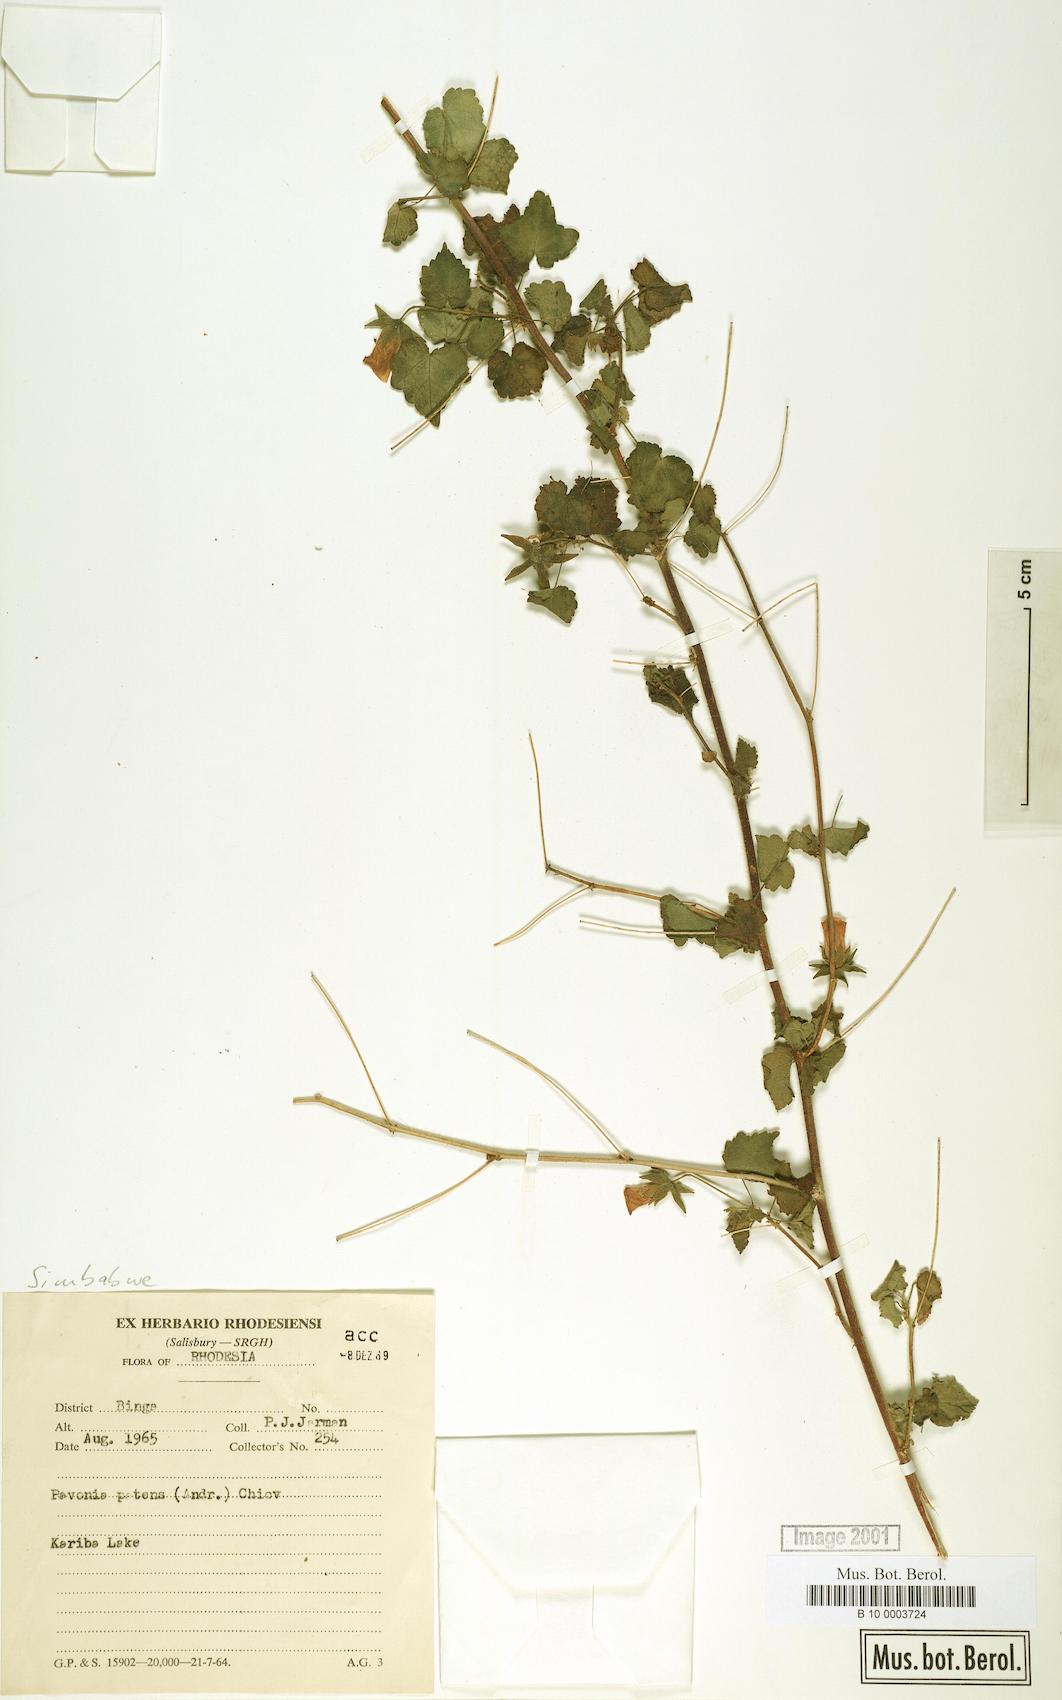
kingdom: Plantae
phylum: Tracheophyta
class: Magnoliopsida
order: Malvales
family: Malvaceae
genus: Abutilon
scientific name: Abutilon mauritianum
